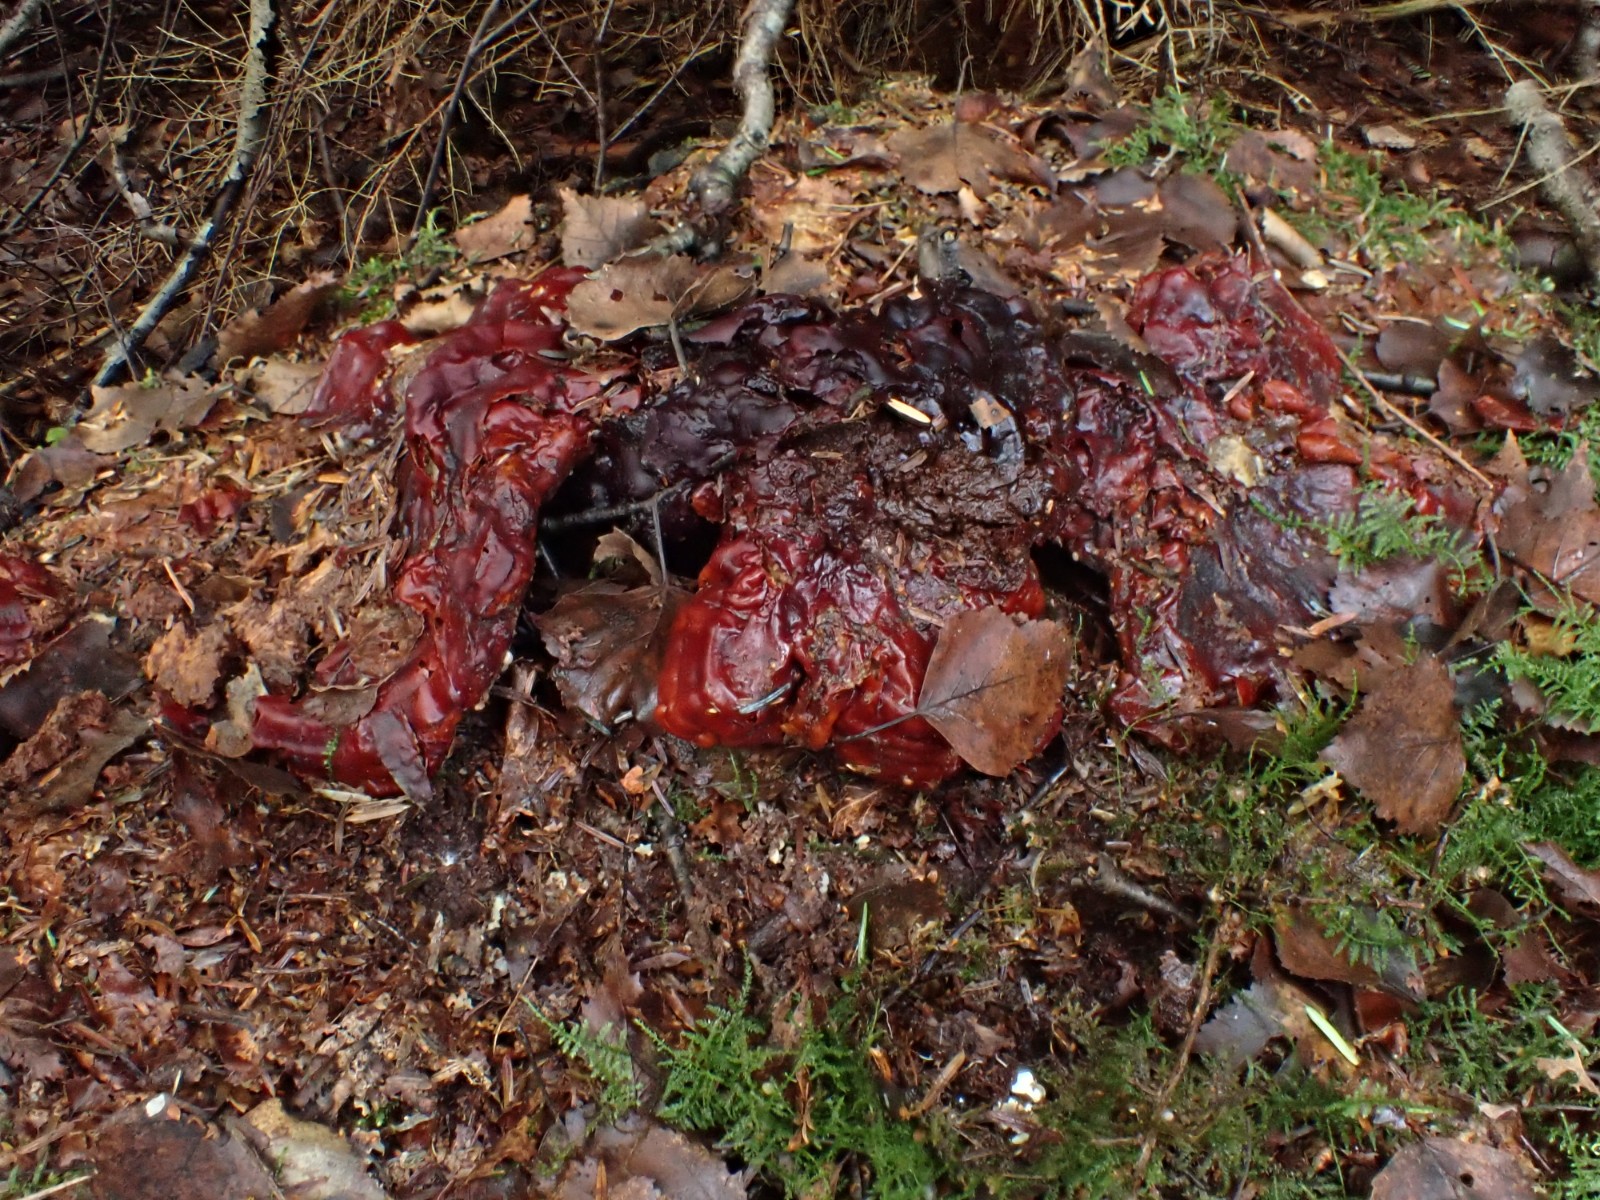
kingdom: Fungi
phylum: Basidiomycota
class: Agaricomycetes
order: Polyporales
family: Polyporaceae
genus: Ganoderma
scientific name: Ganoderma lucidum
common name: skinnende lakporesvamp
